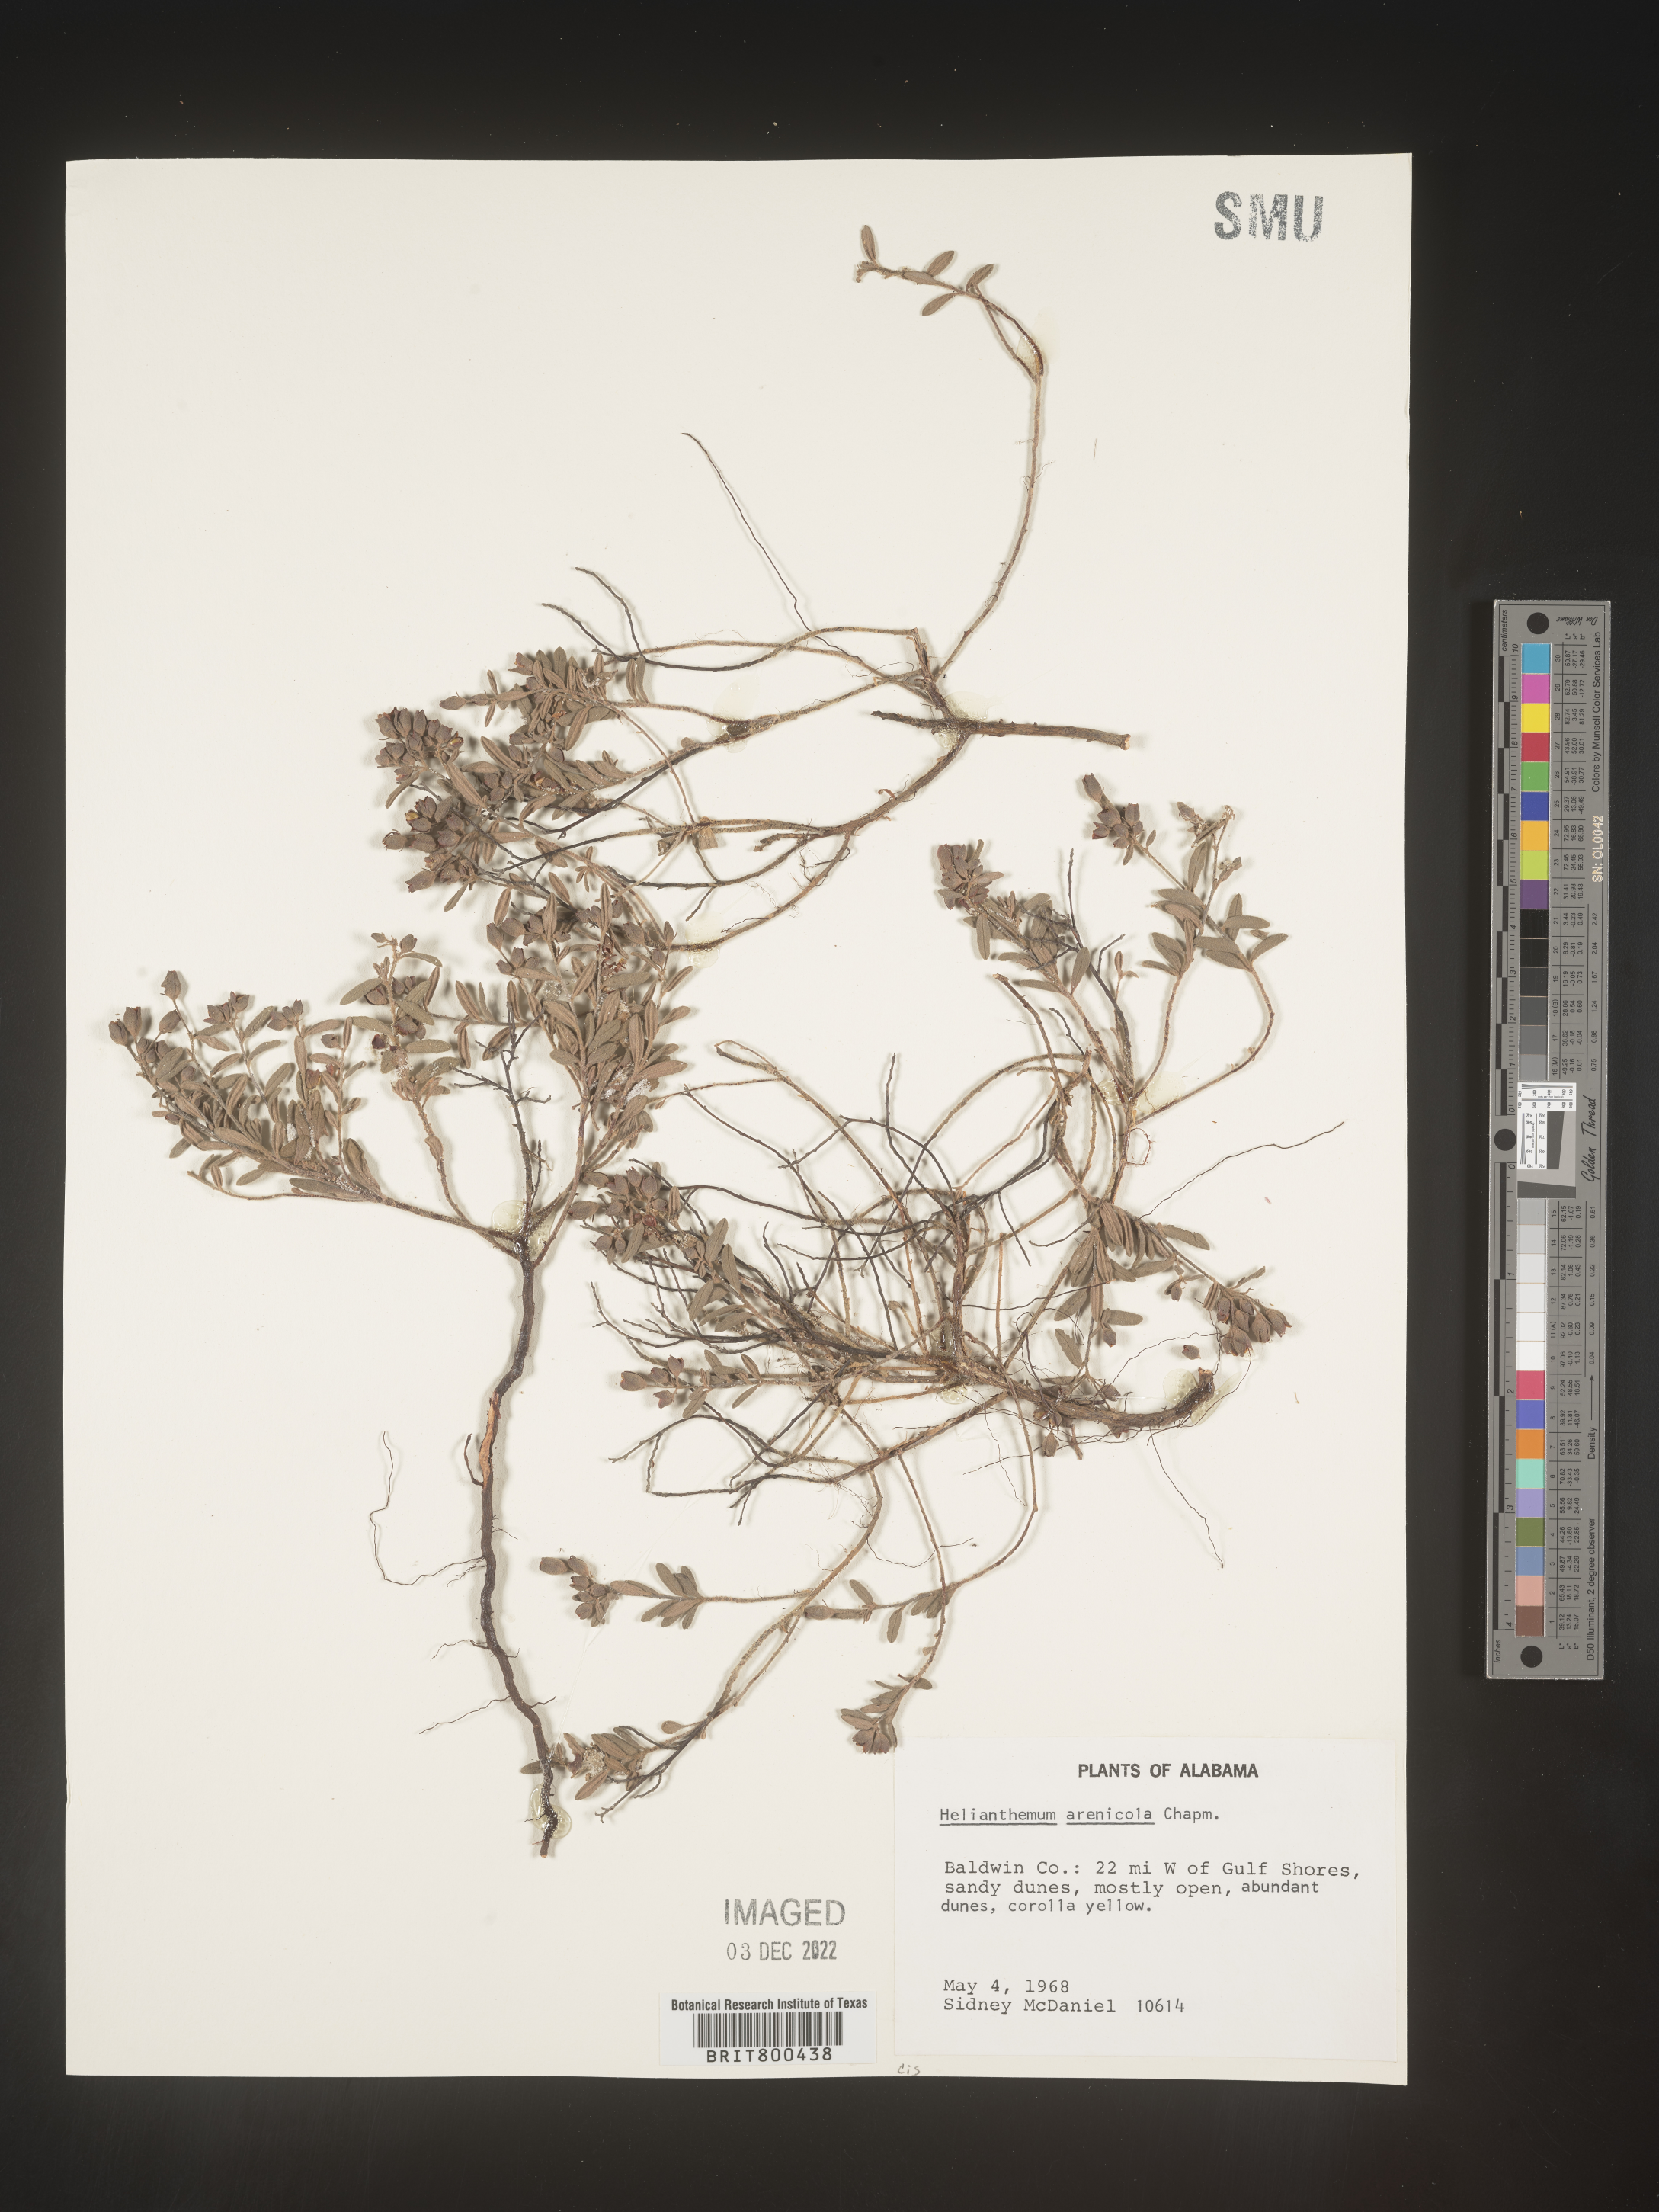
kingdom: Plantae
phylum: Tracheophyta
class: Magnoliopsida
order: Malvales
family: Cistaceae
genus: Helianthemum
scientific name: Helianthemum
